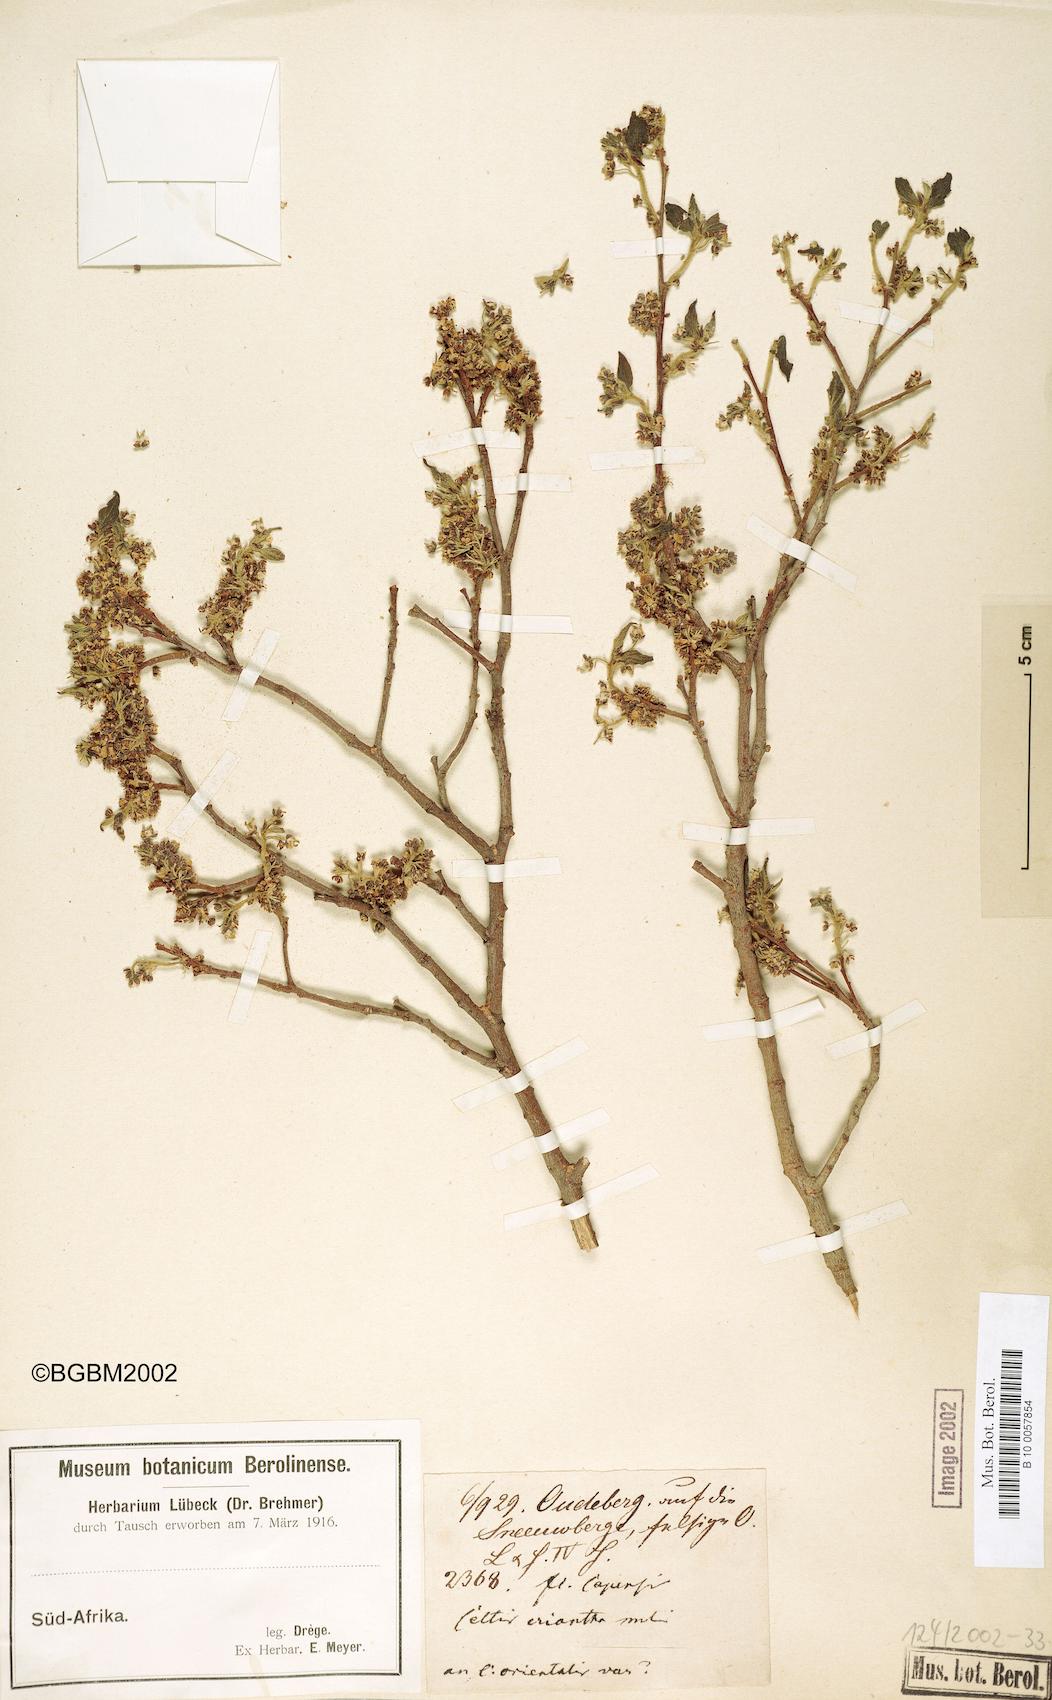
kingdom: Plantae
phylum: Tracheophyta
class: Magnoliopsida
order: Rosales
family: Cannabaceae
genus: Celtis
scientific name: Celtis africana
